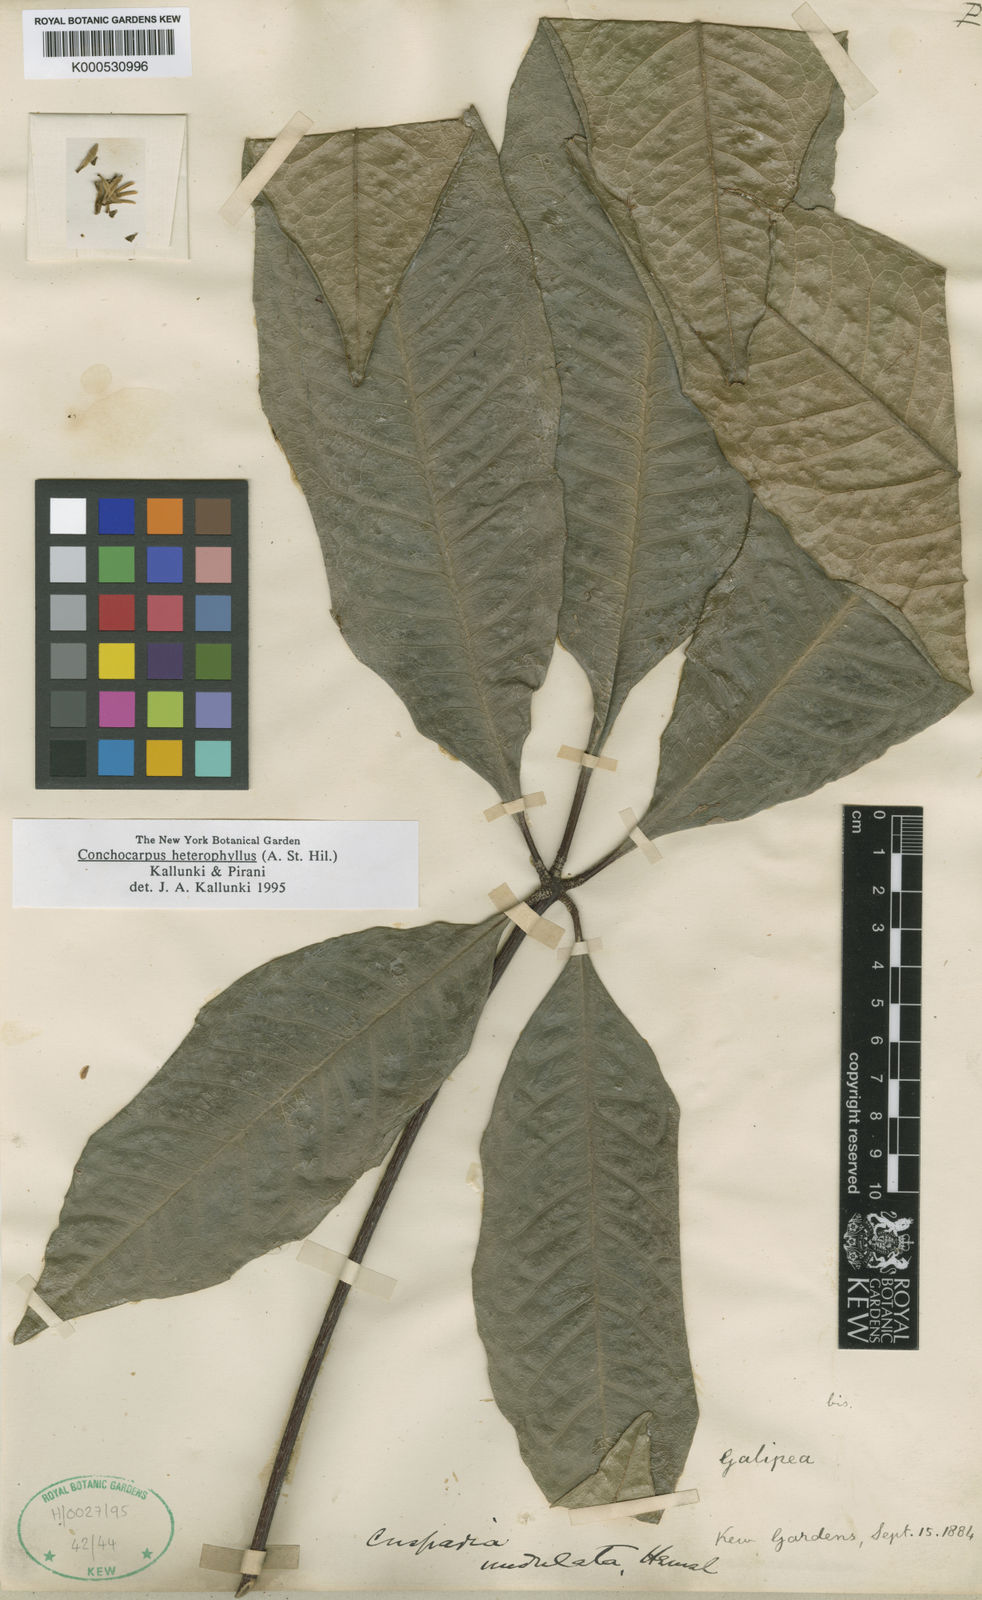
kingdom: Plantae
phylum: Tracheophyta
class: Magnoliopsida
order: Sapindales
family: Rutaceae
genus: Conchocarpus
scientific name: Conchocarpus heterophyllus
